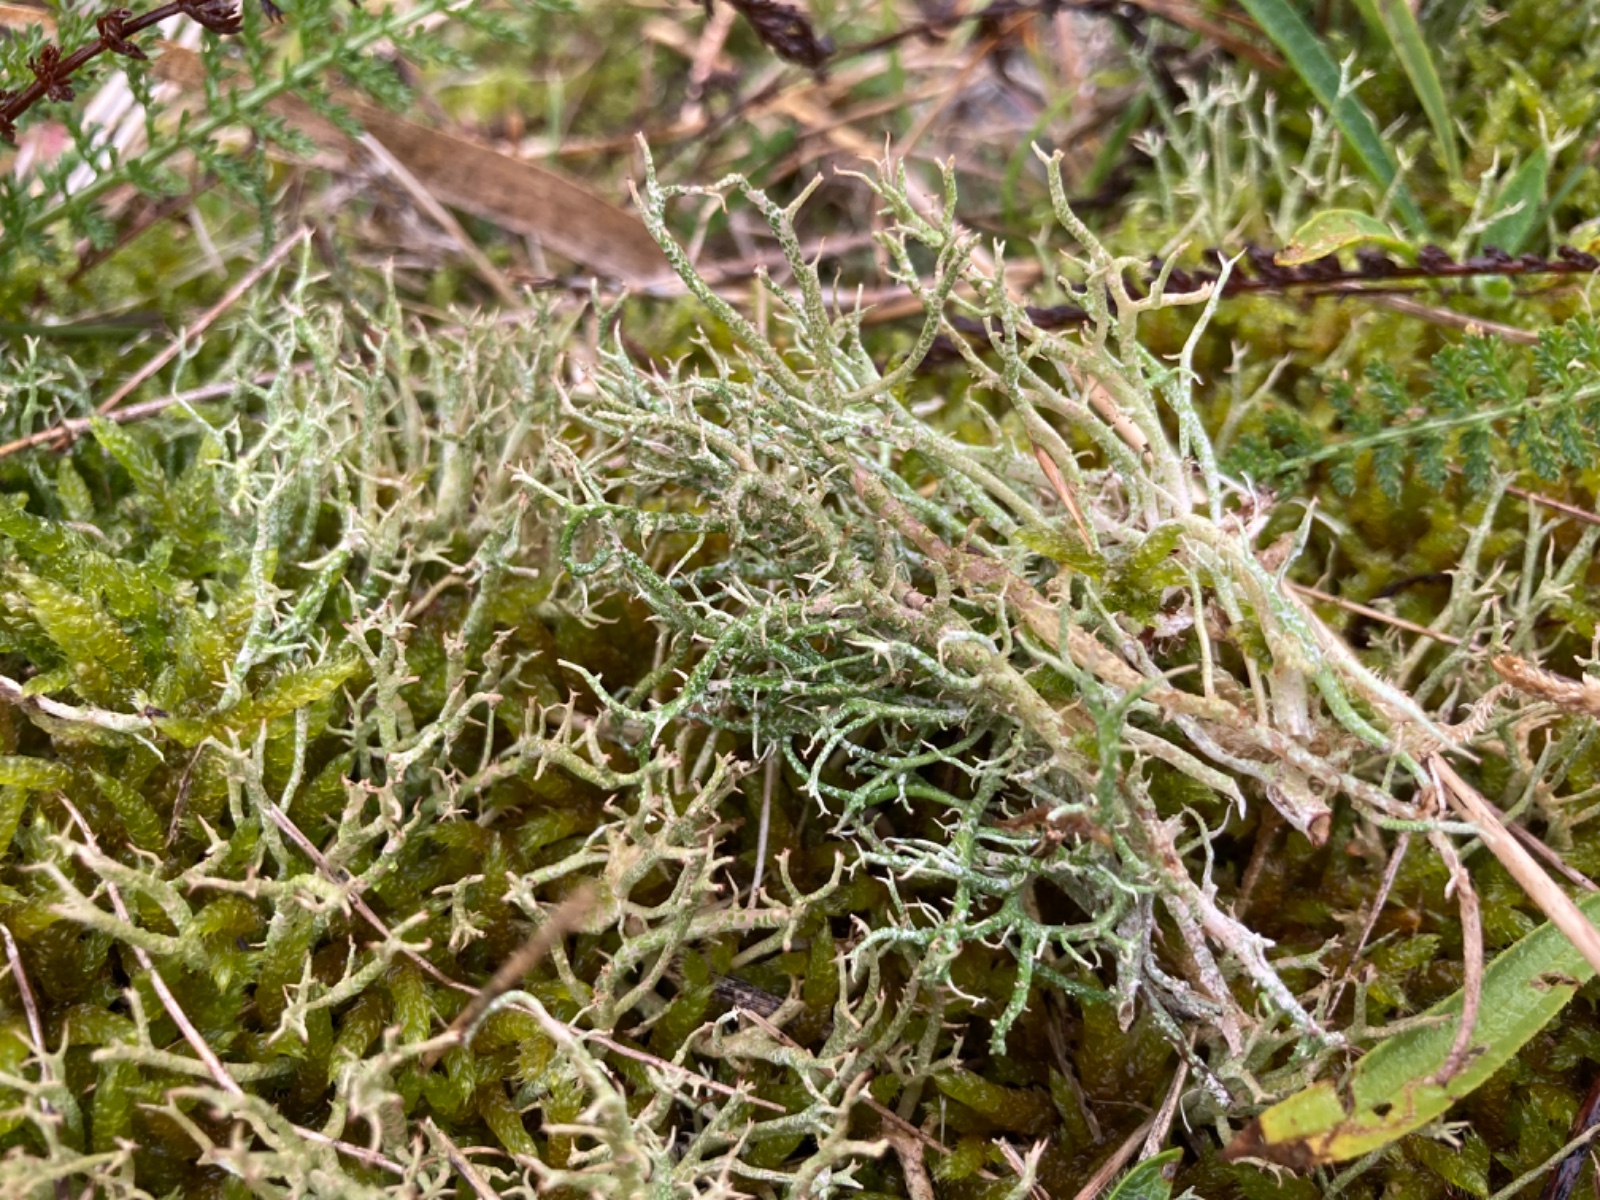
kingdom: Fungi
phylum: Ascomycota
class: Lecanoromycetes
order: Lecanorales
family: Cladoniaceae
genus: Cladonia
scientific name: Cladonia furcata
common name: kløftet bægerlav
